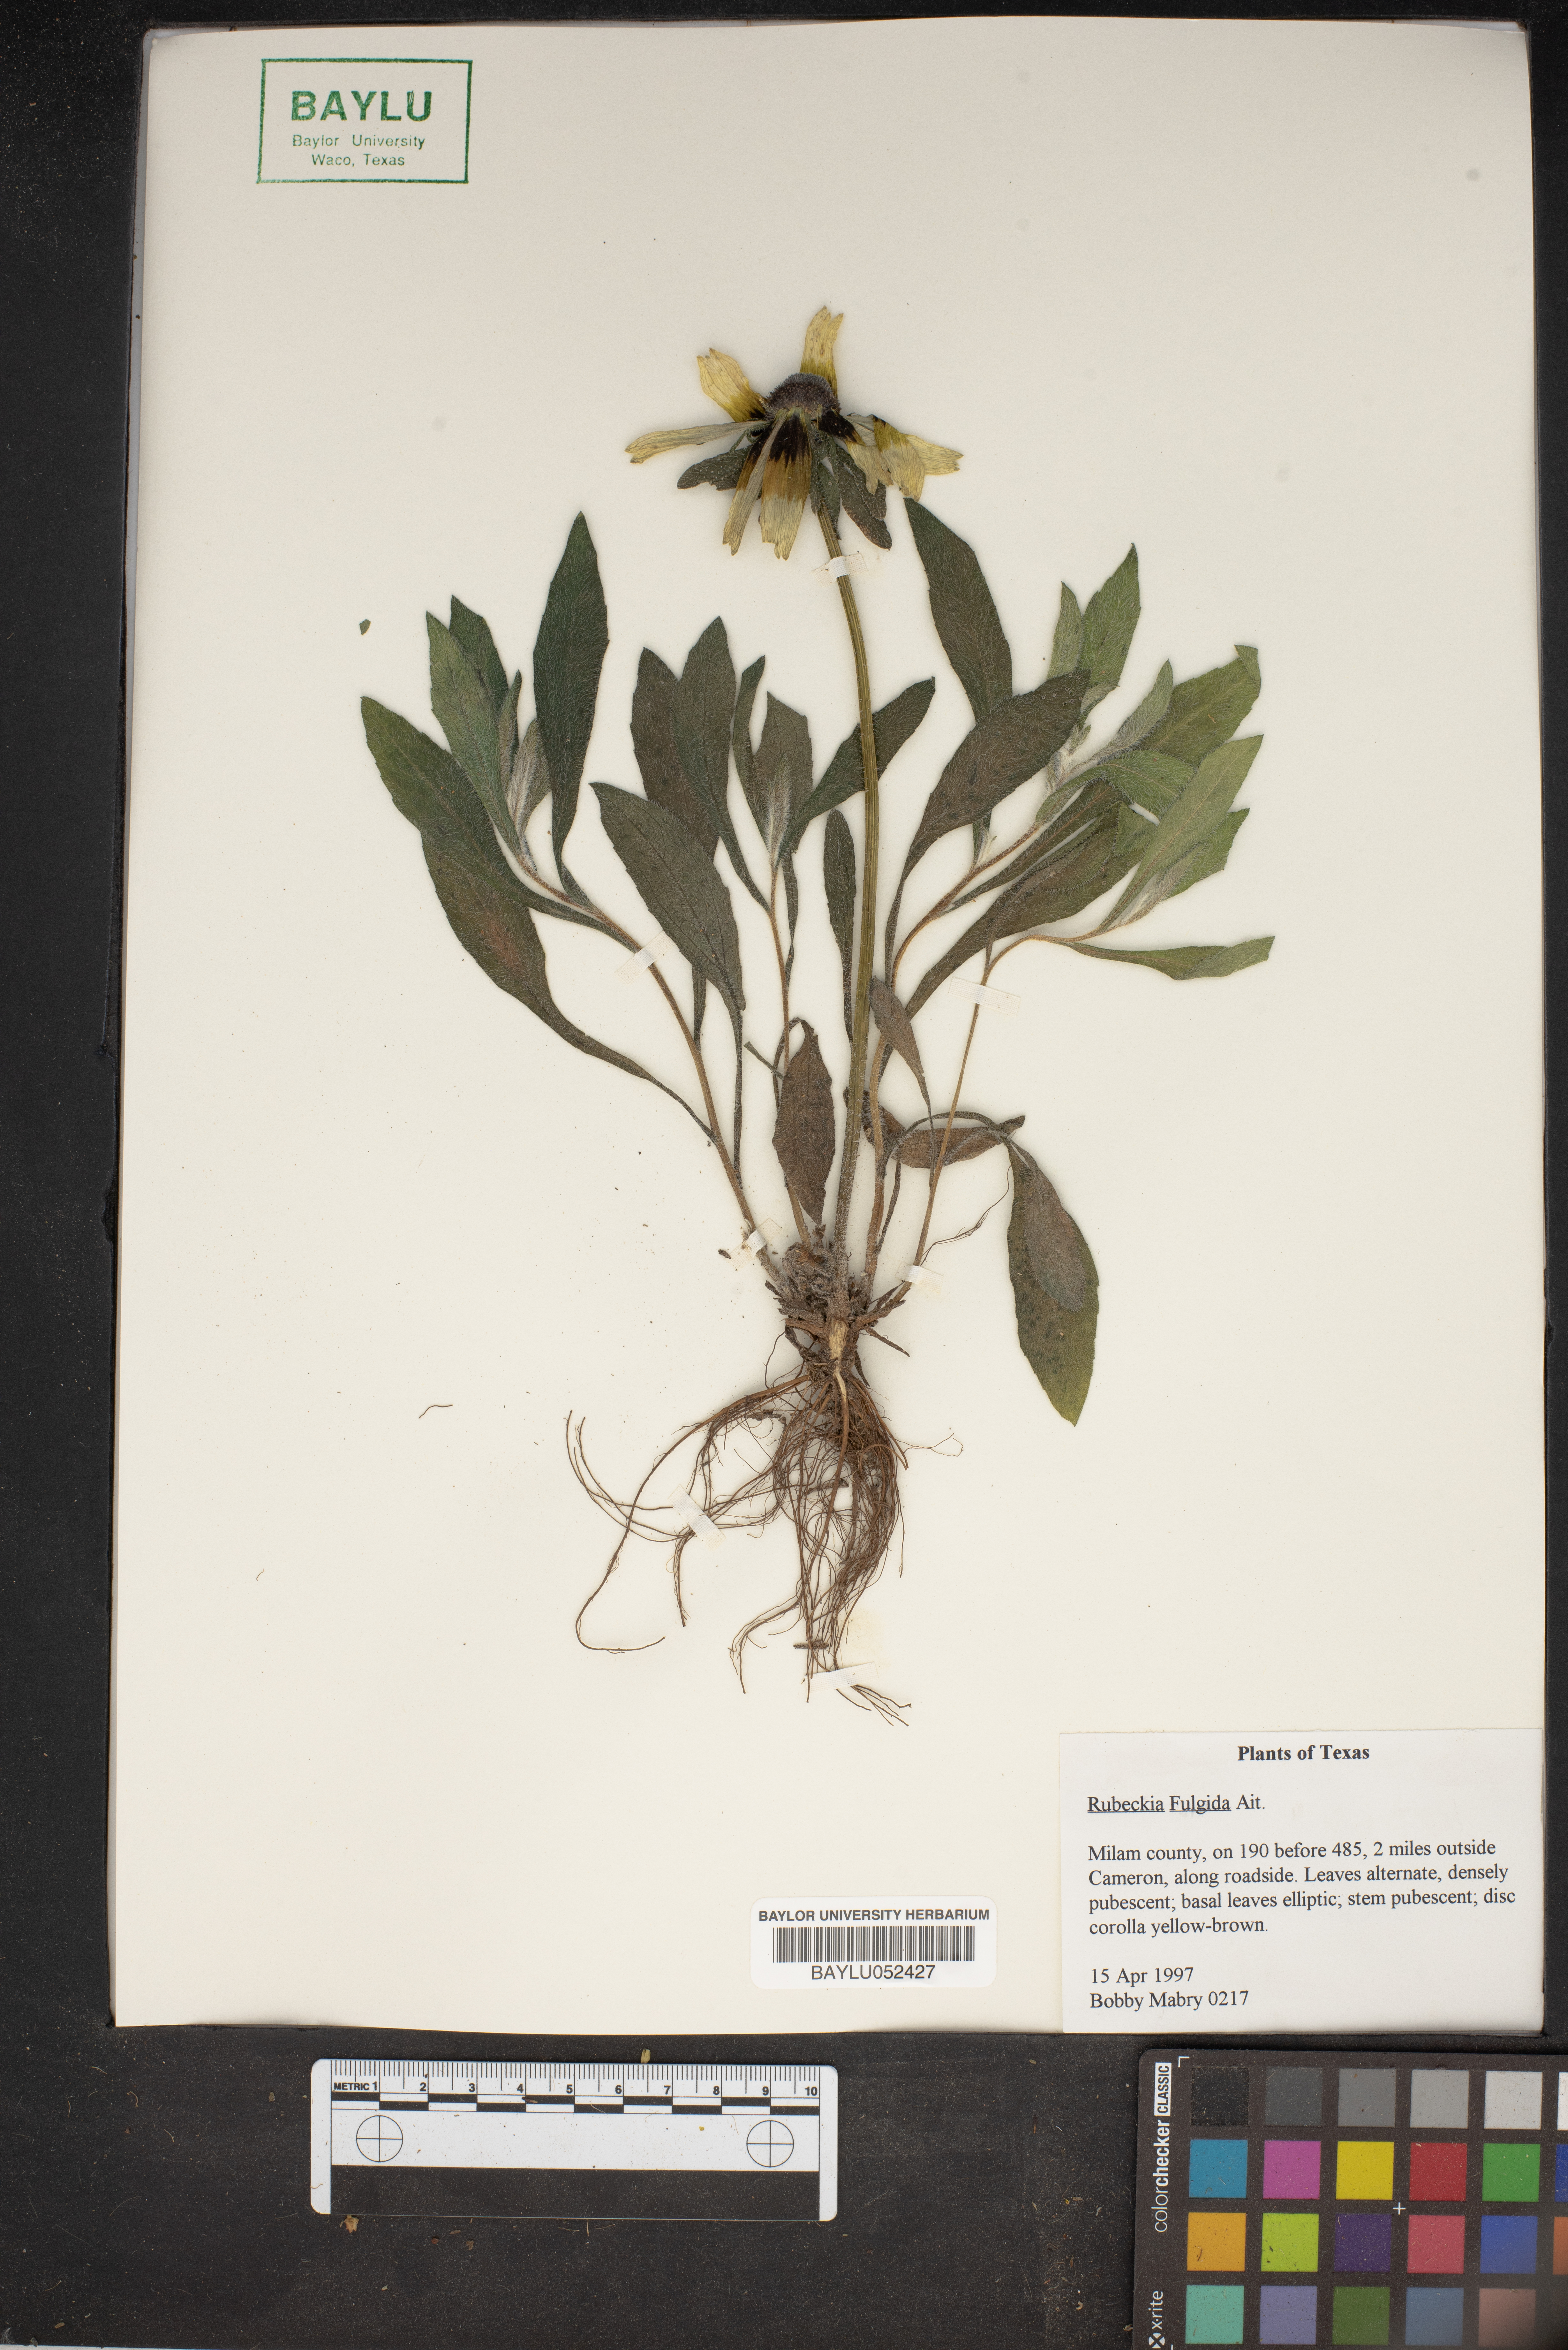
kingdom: Plantae
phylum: Tracheophyta
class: Magnoliopsida
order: Asterales
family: Asteraceae
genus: Rudbeckia
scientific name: Rudbeckia fulgida
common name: Perennial coneflower
